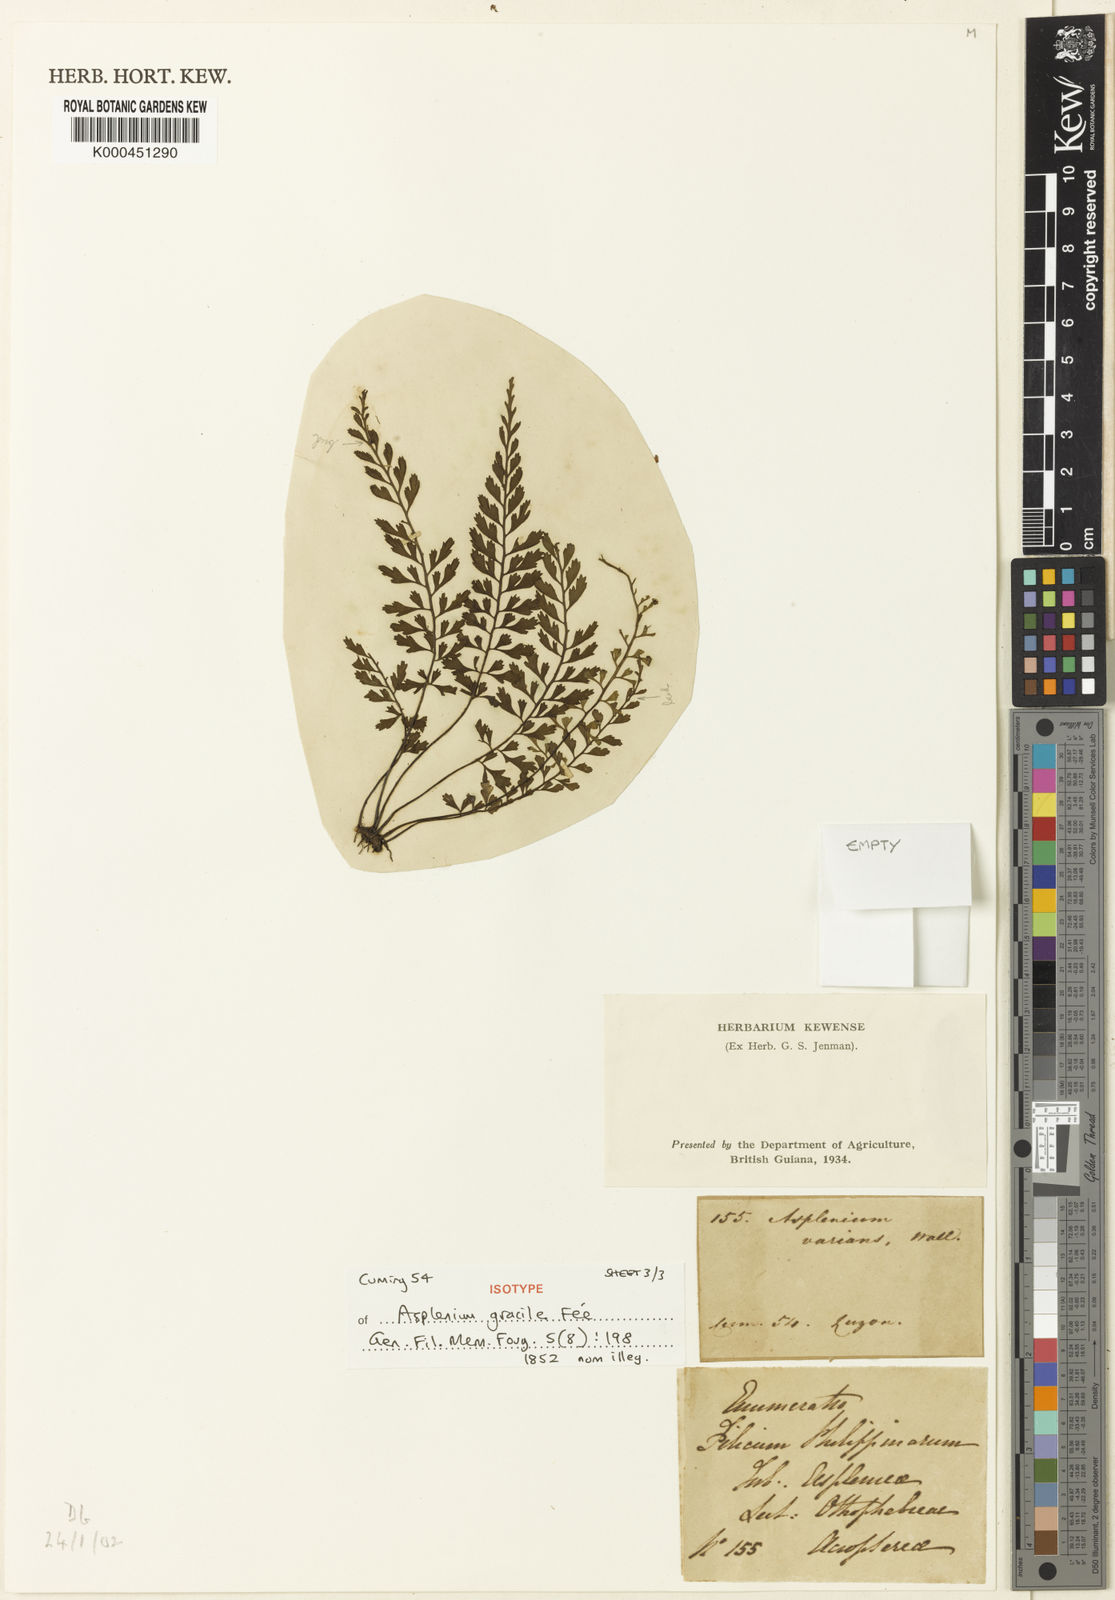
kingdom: Plantae
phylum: Tracheophyta
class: Polypodiopsida
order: Polypodiales
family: Aspleniaceae
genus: Asplenium
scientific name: Asplenium baileyanum
